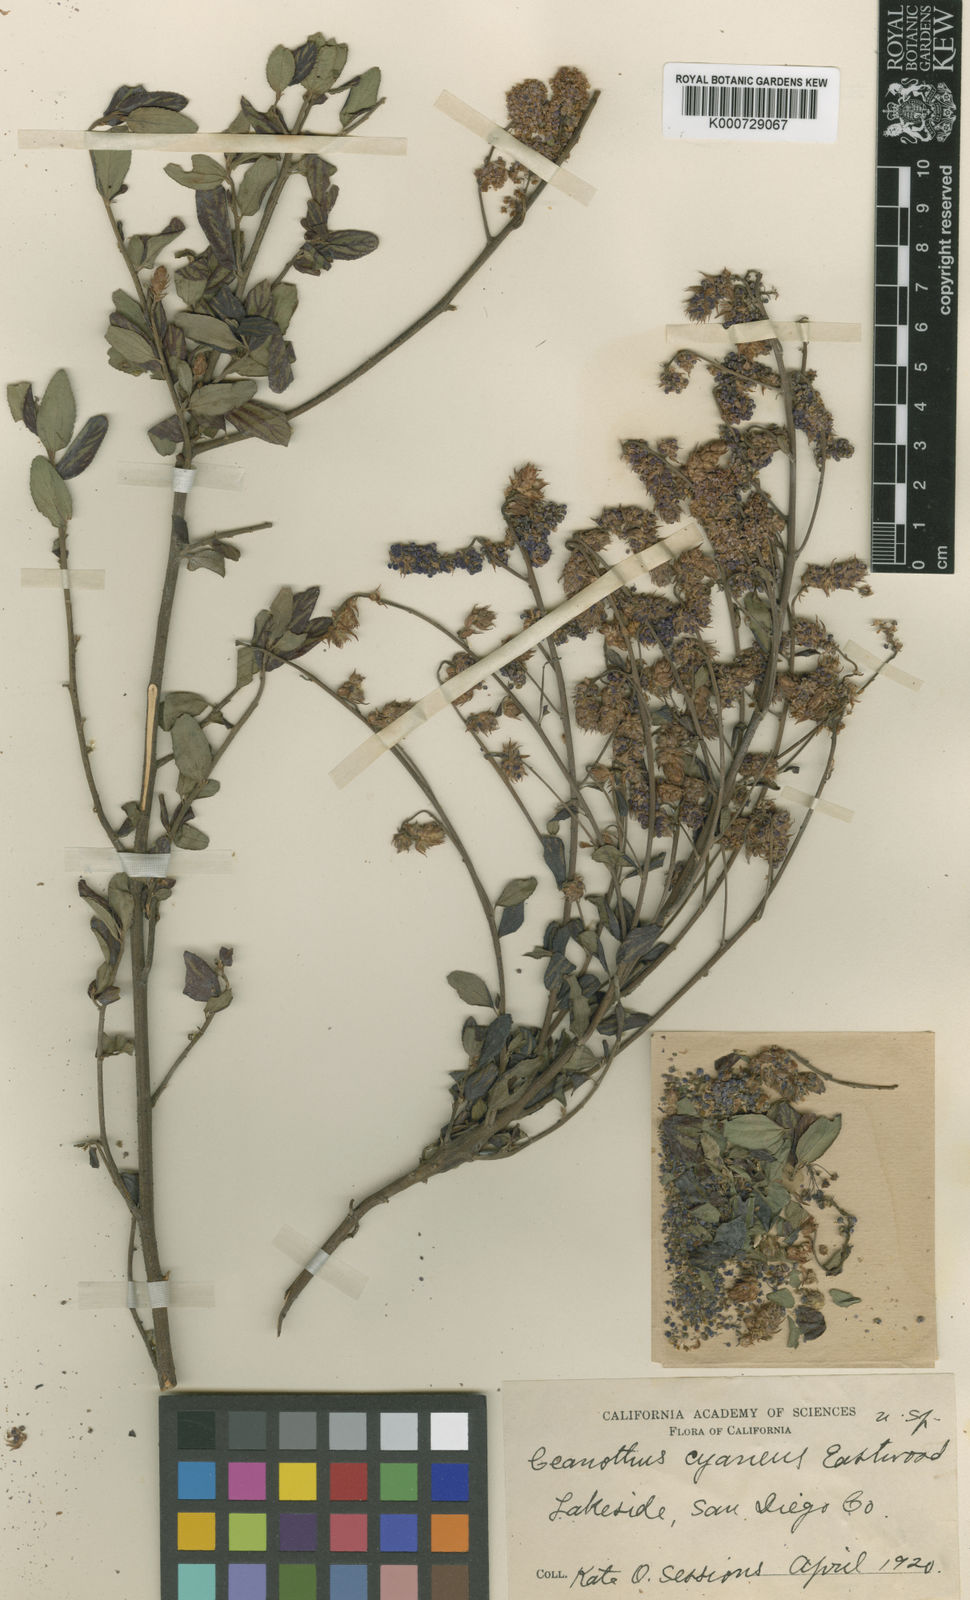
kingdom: Plantae
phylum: Tracheophyta
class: Magnoliopsida
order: Rosales
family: Rhamnaceae
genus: Ceanothus
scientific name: Ceanothus cyaneus
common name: Lakeside ceanothus
